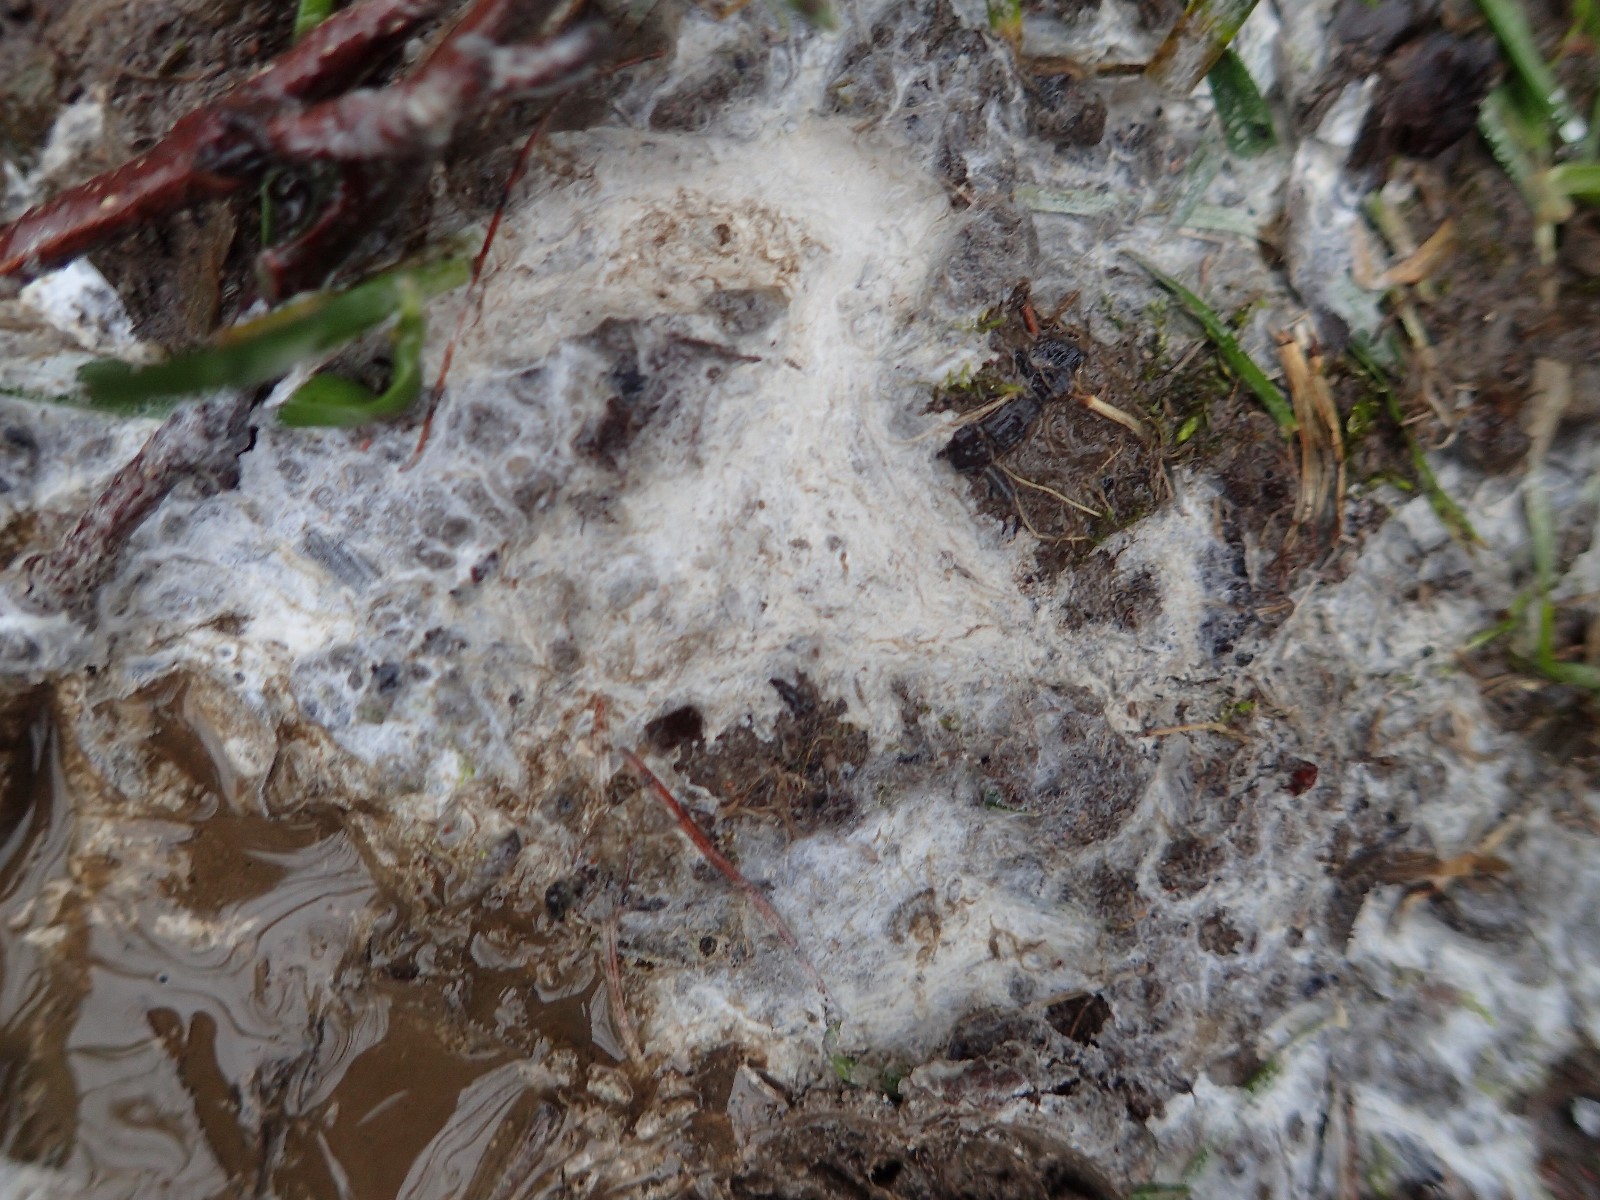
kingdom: Fungi
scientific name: Fungi
